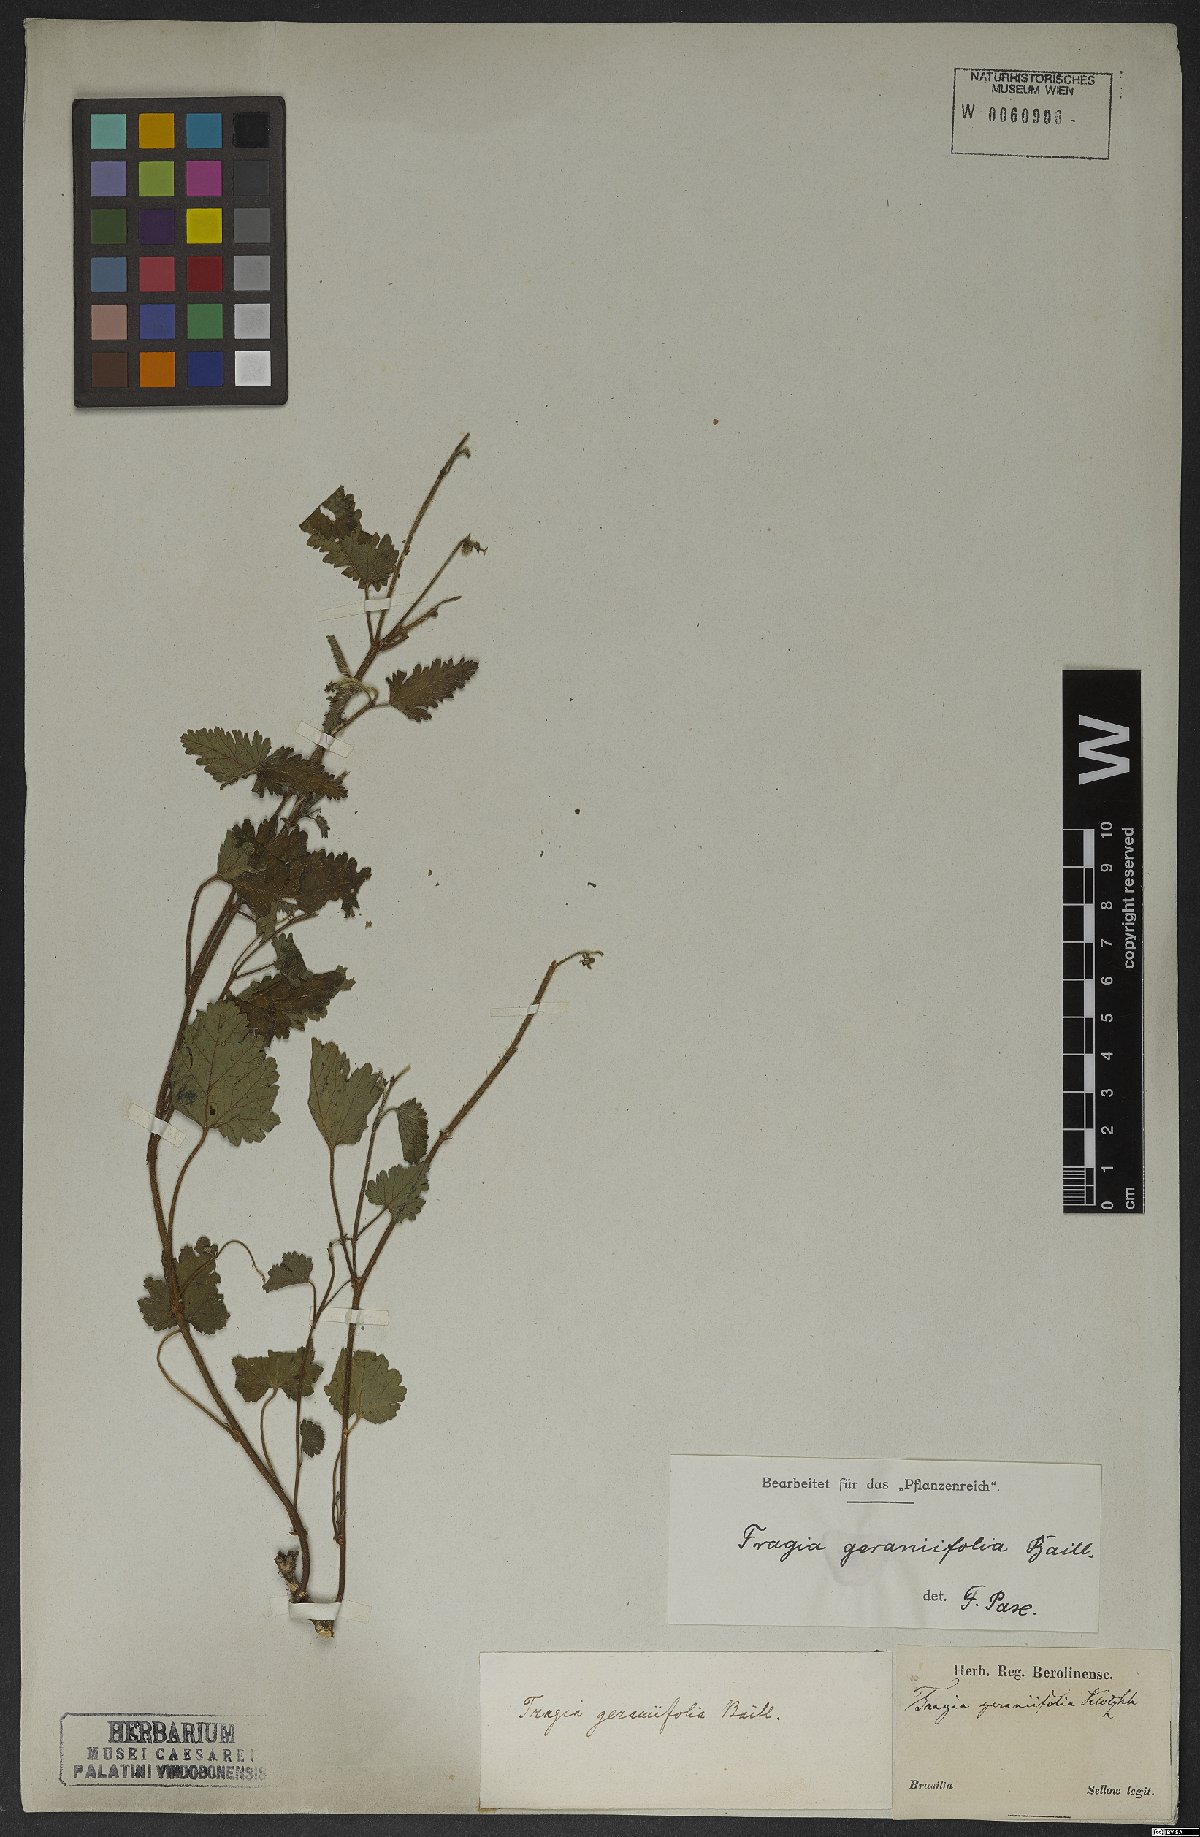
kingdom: Plantae
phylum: Tracheophyta
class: Magnoliopsida
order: Malpighiales
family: Euphorbiaceae
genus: Tragia
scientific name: Tragia geraniifolia
